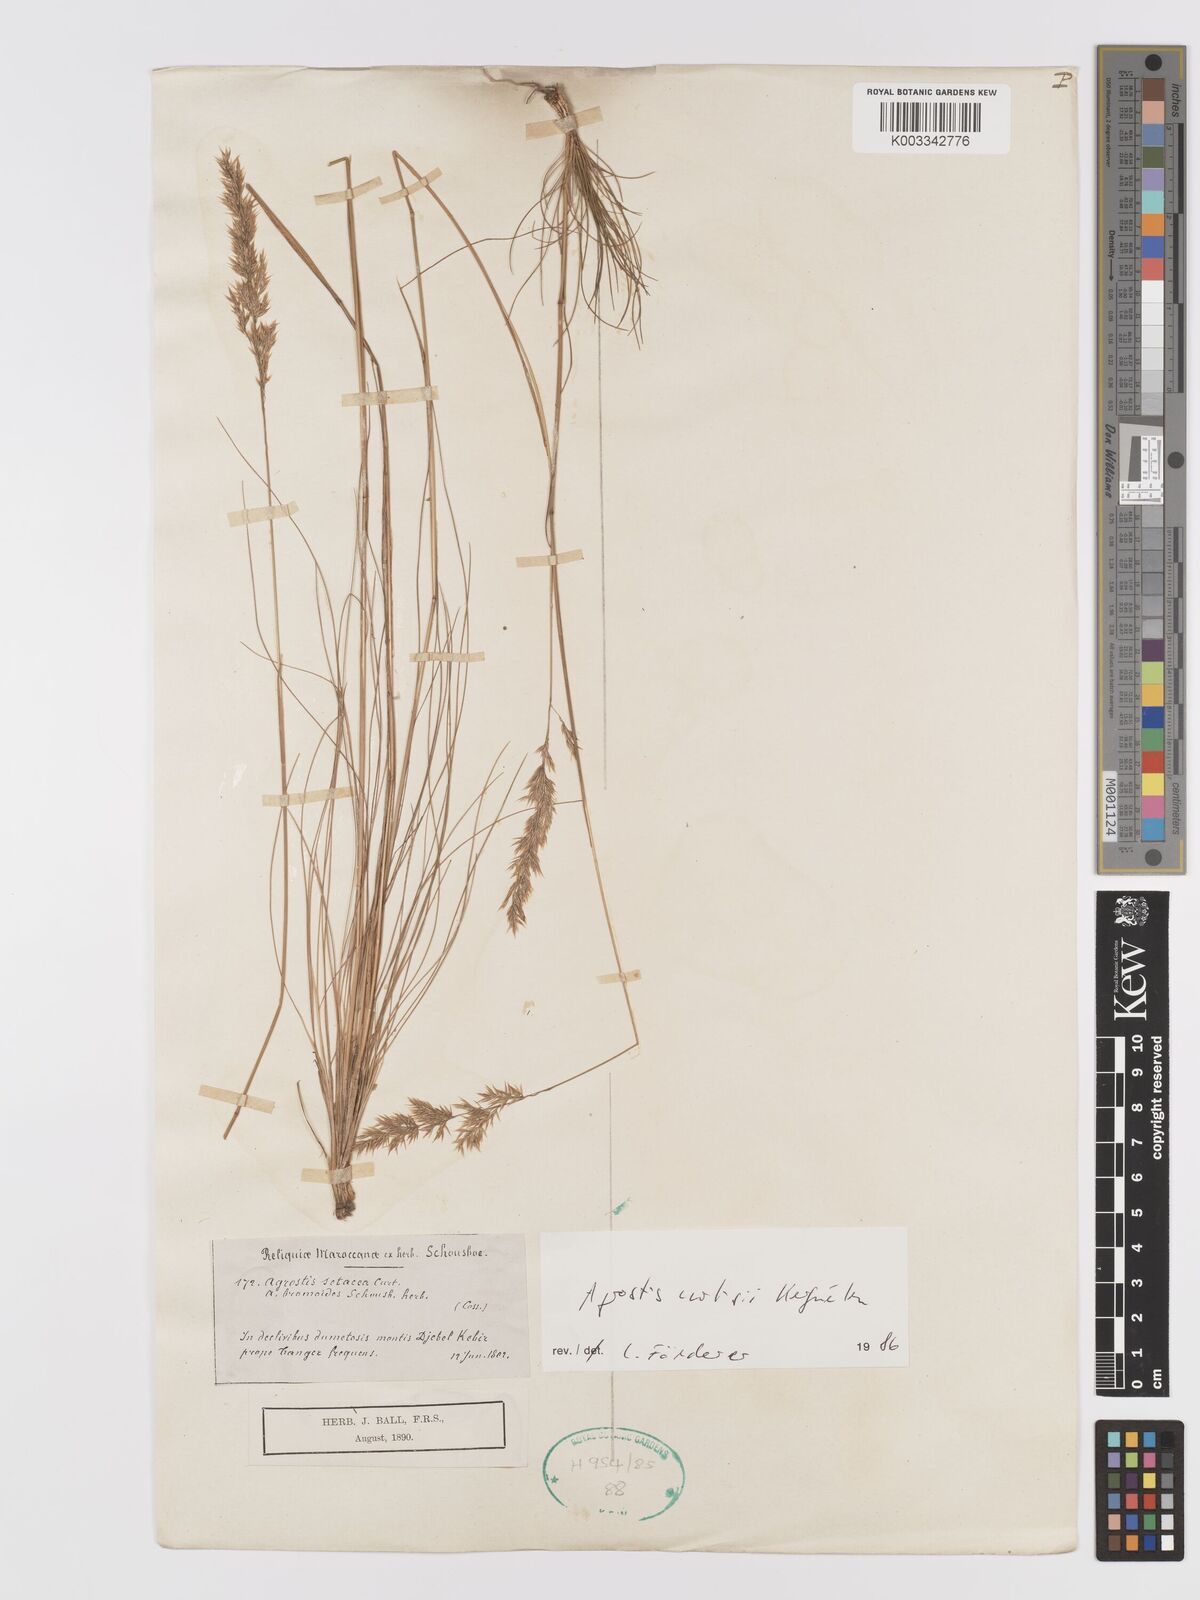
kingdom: Plantae
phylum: Tracheophyta
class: Liliopsida
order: Poales
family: Poaceae
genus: Alpagrostis
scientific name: Alpagrostis setacea
